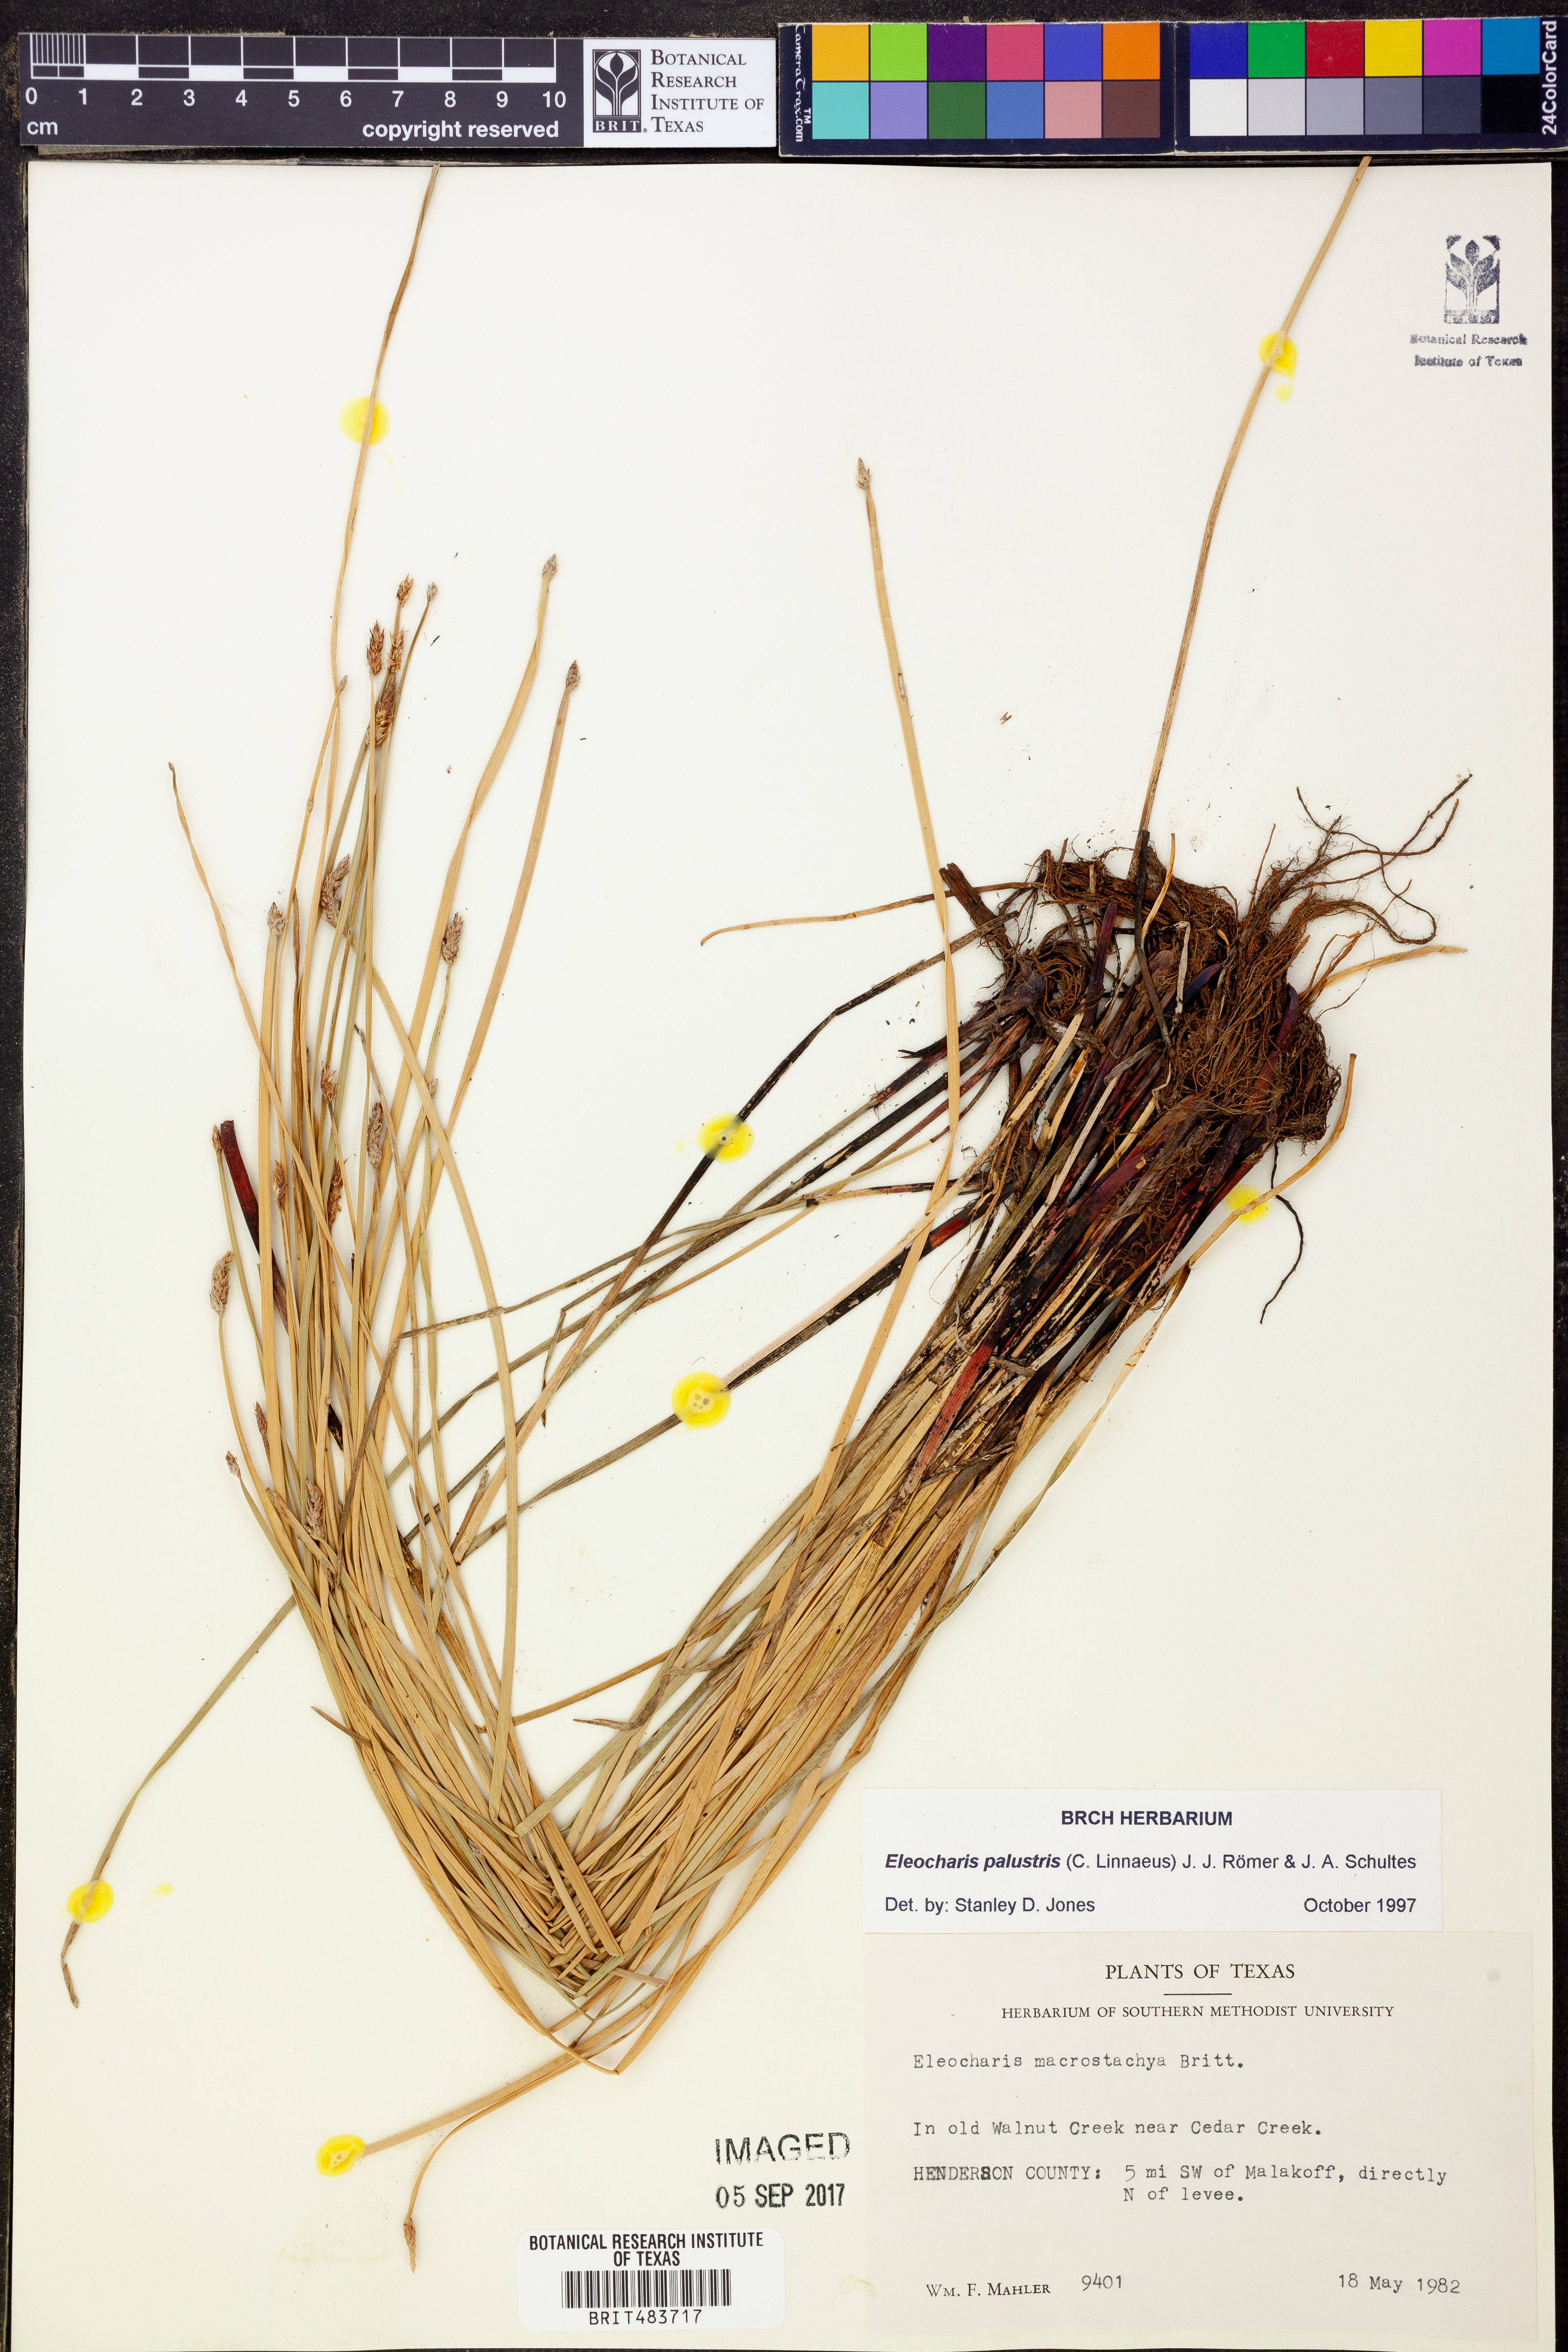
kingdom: Plantae
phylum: Tracheophyta
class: Liliopsida
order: Poales
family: Cyperaceae
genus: Eleocharis
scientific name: Eleocharis palustris
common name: Common spike-rush
